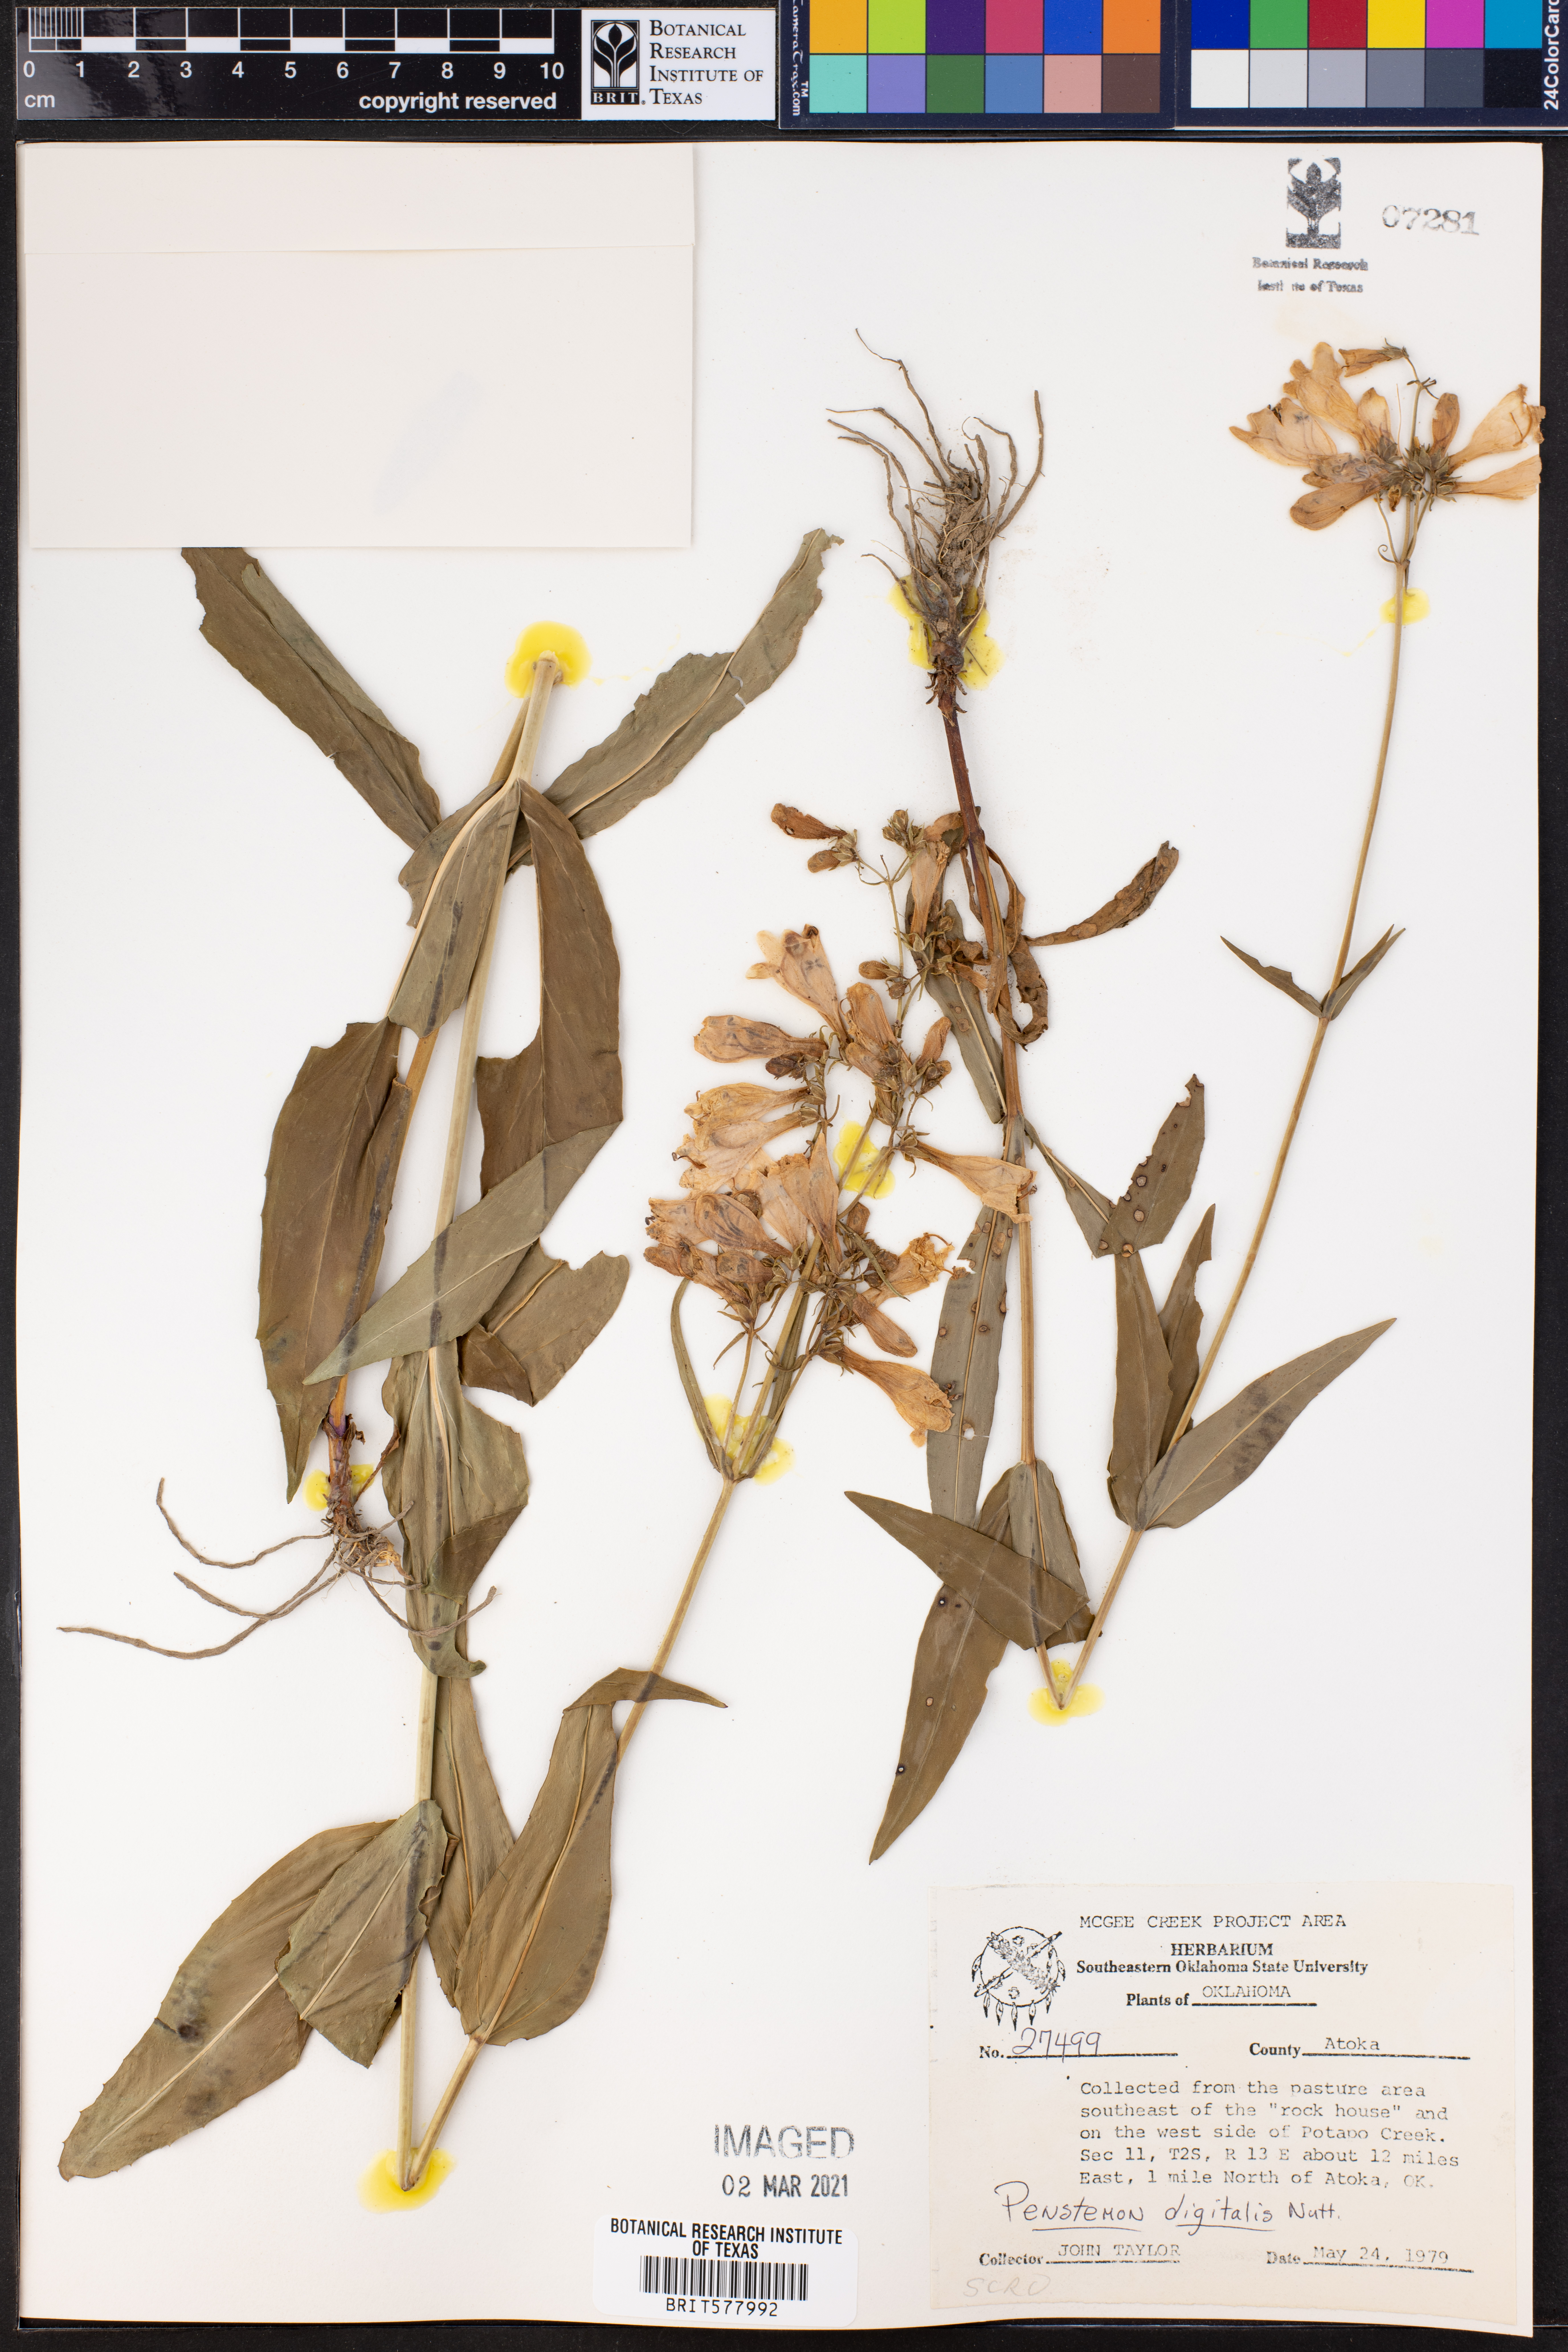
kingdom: Plantae
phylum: Tracheophyta
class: Magnoliopsida
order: Lamiales
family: Plantaginaceae
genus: Penstemon
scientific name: Penstemon digitalis
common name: Foxglove beardtongue
